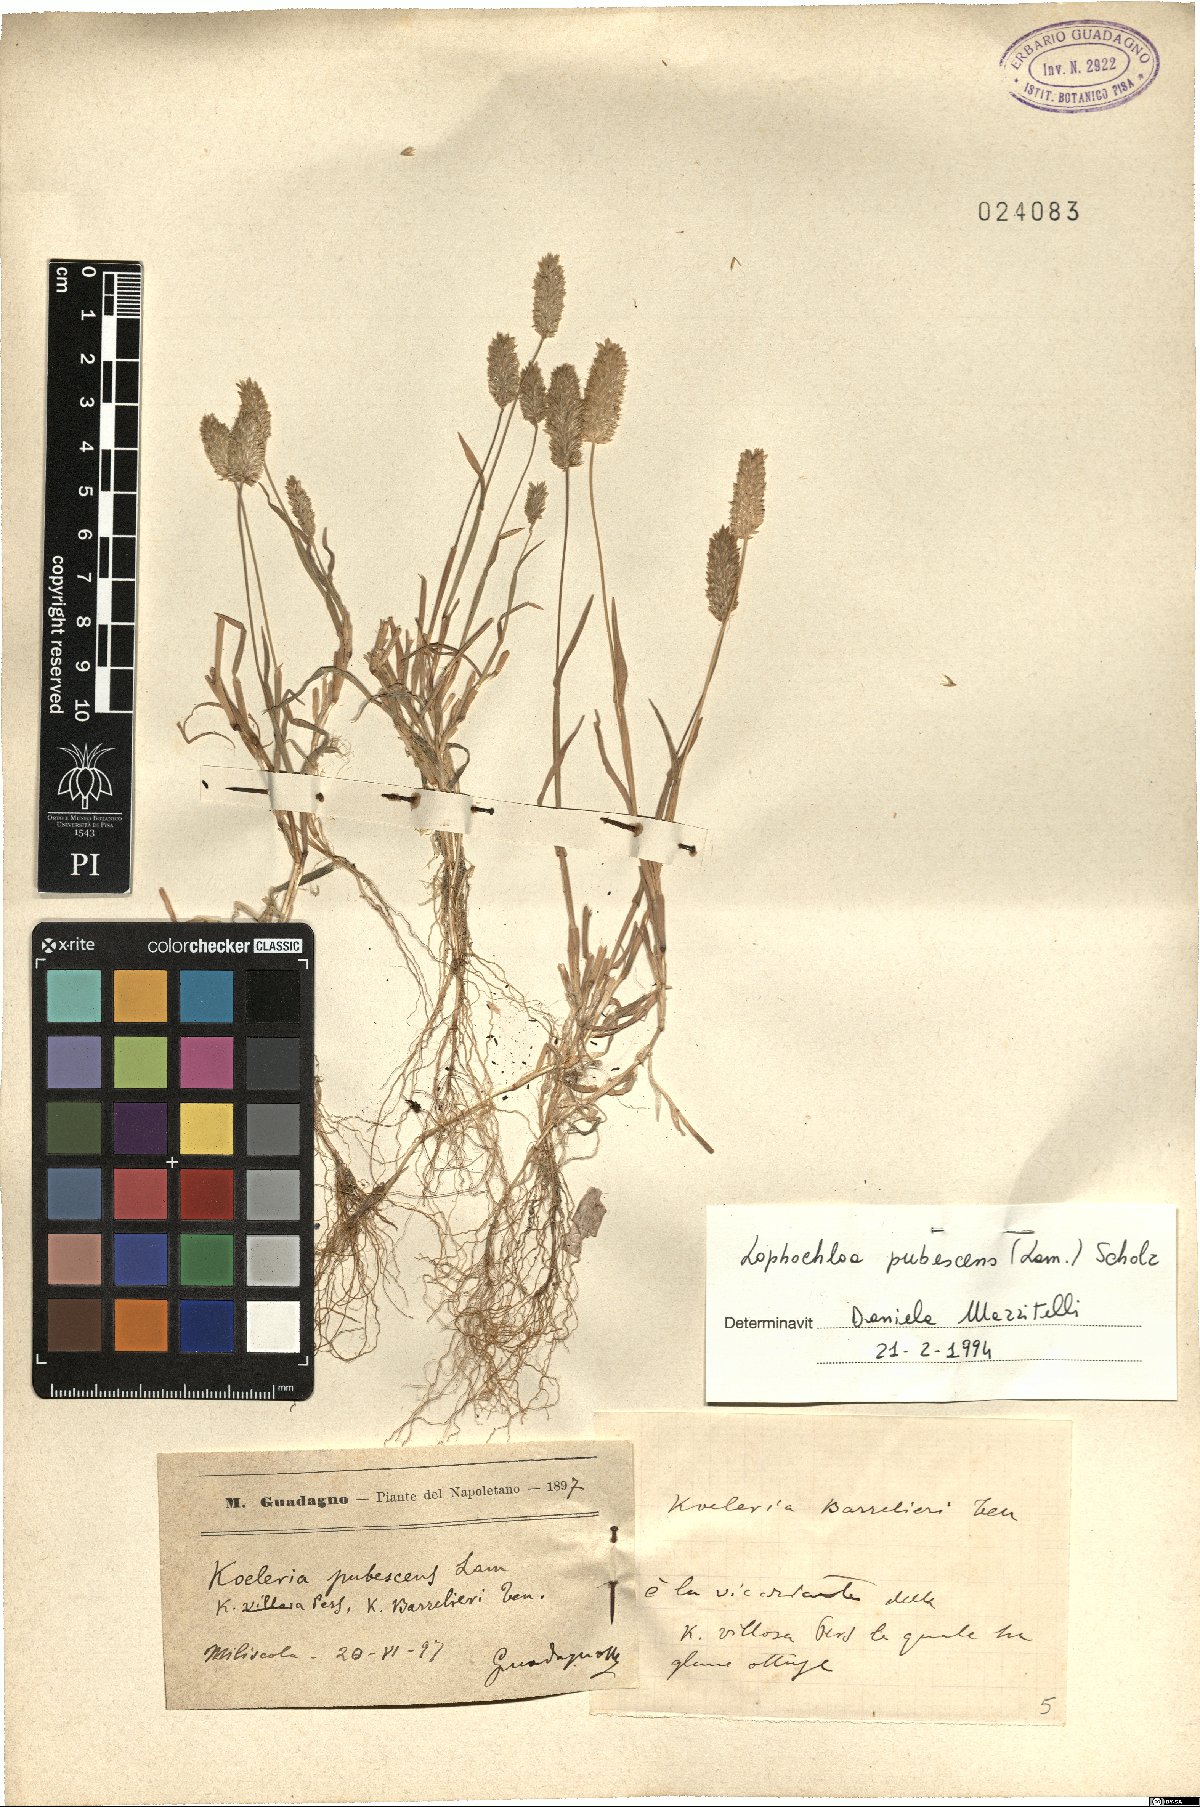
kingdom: Plantae
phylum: Tracheophyta
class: Liliopsida
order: Poales
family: Poaceae
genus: Rostraria
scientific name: Rostraria litorea
